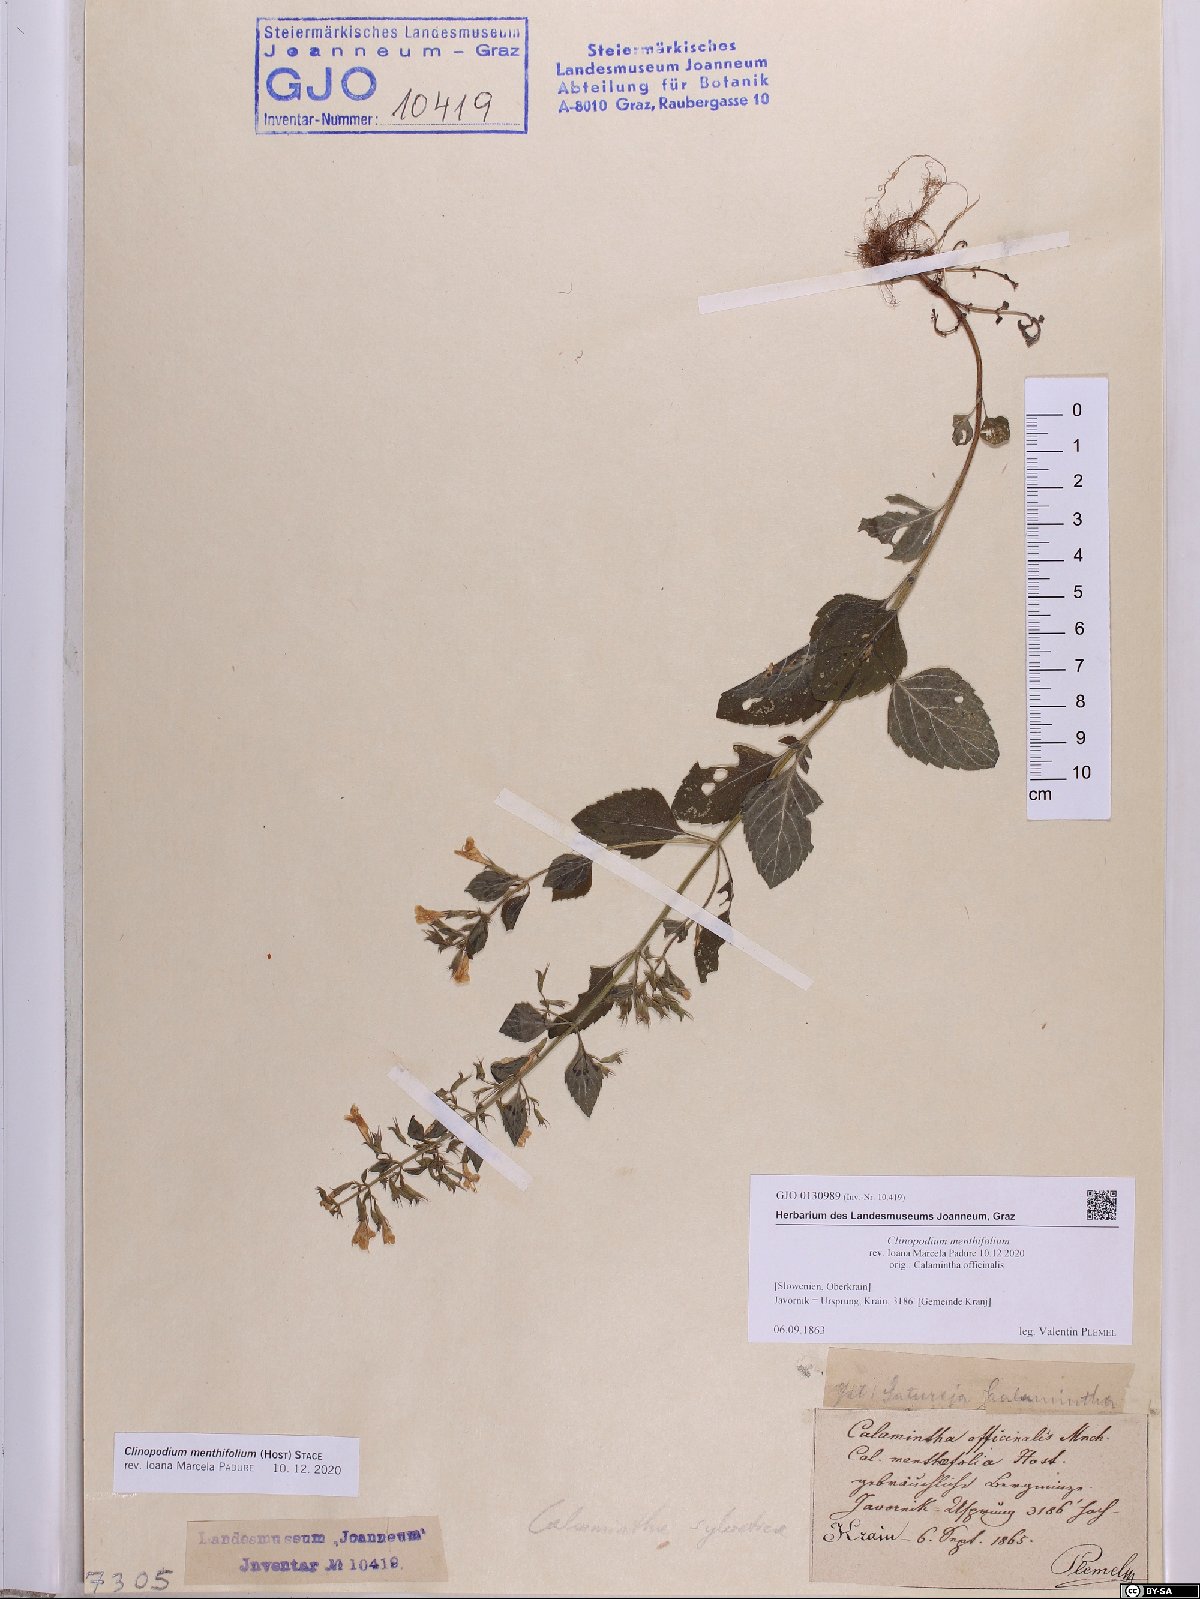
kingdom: Plantae
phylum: Tracheophyta
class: Magnoliopsida
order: Lamiales
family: Lamiaceae
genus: Clinopodium
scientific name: Clinopodium menthifolium
